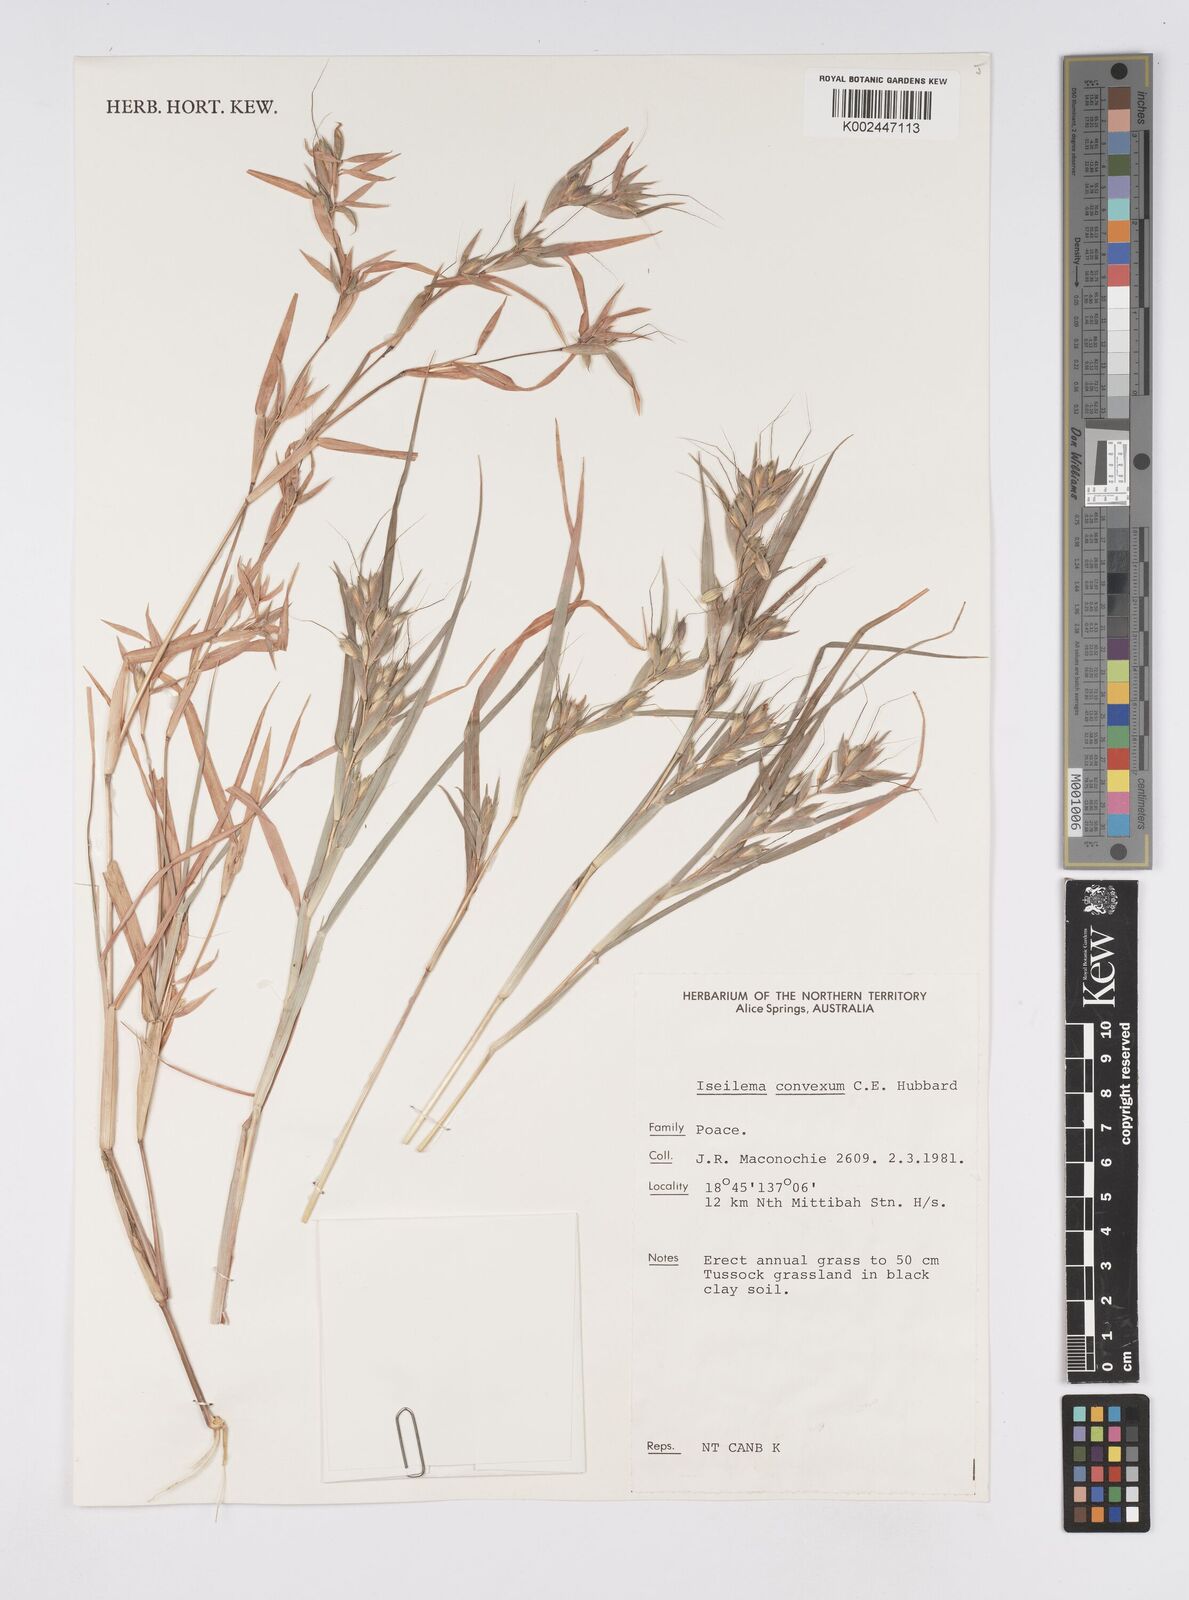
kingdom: Plantae
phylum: Tracheophyta
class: Liliopsida
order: Poales
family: Poaceae
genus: Iseilema
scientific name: Iseilema convexum
